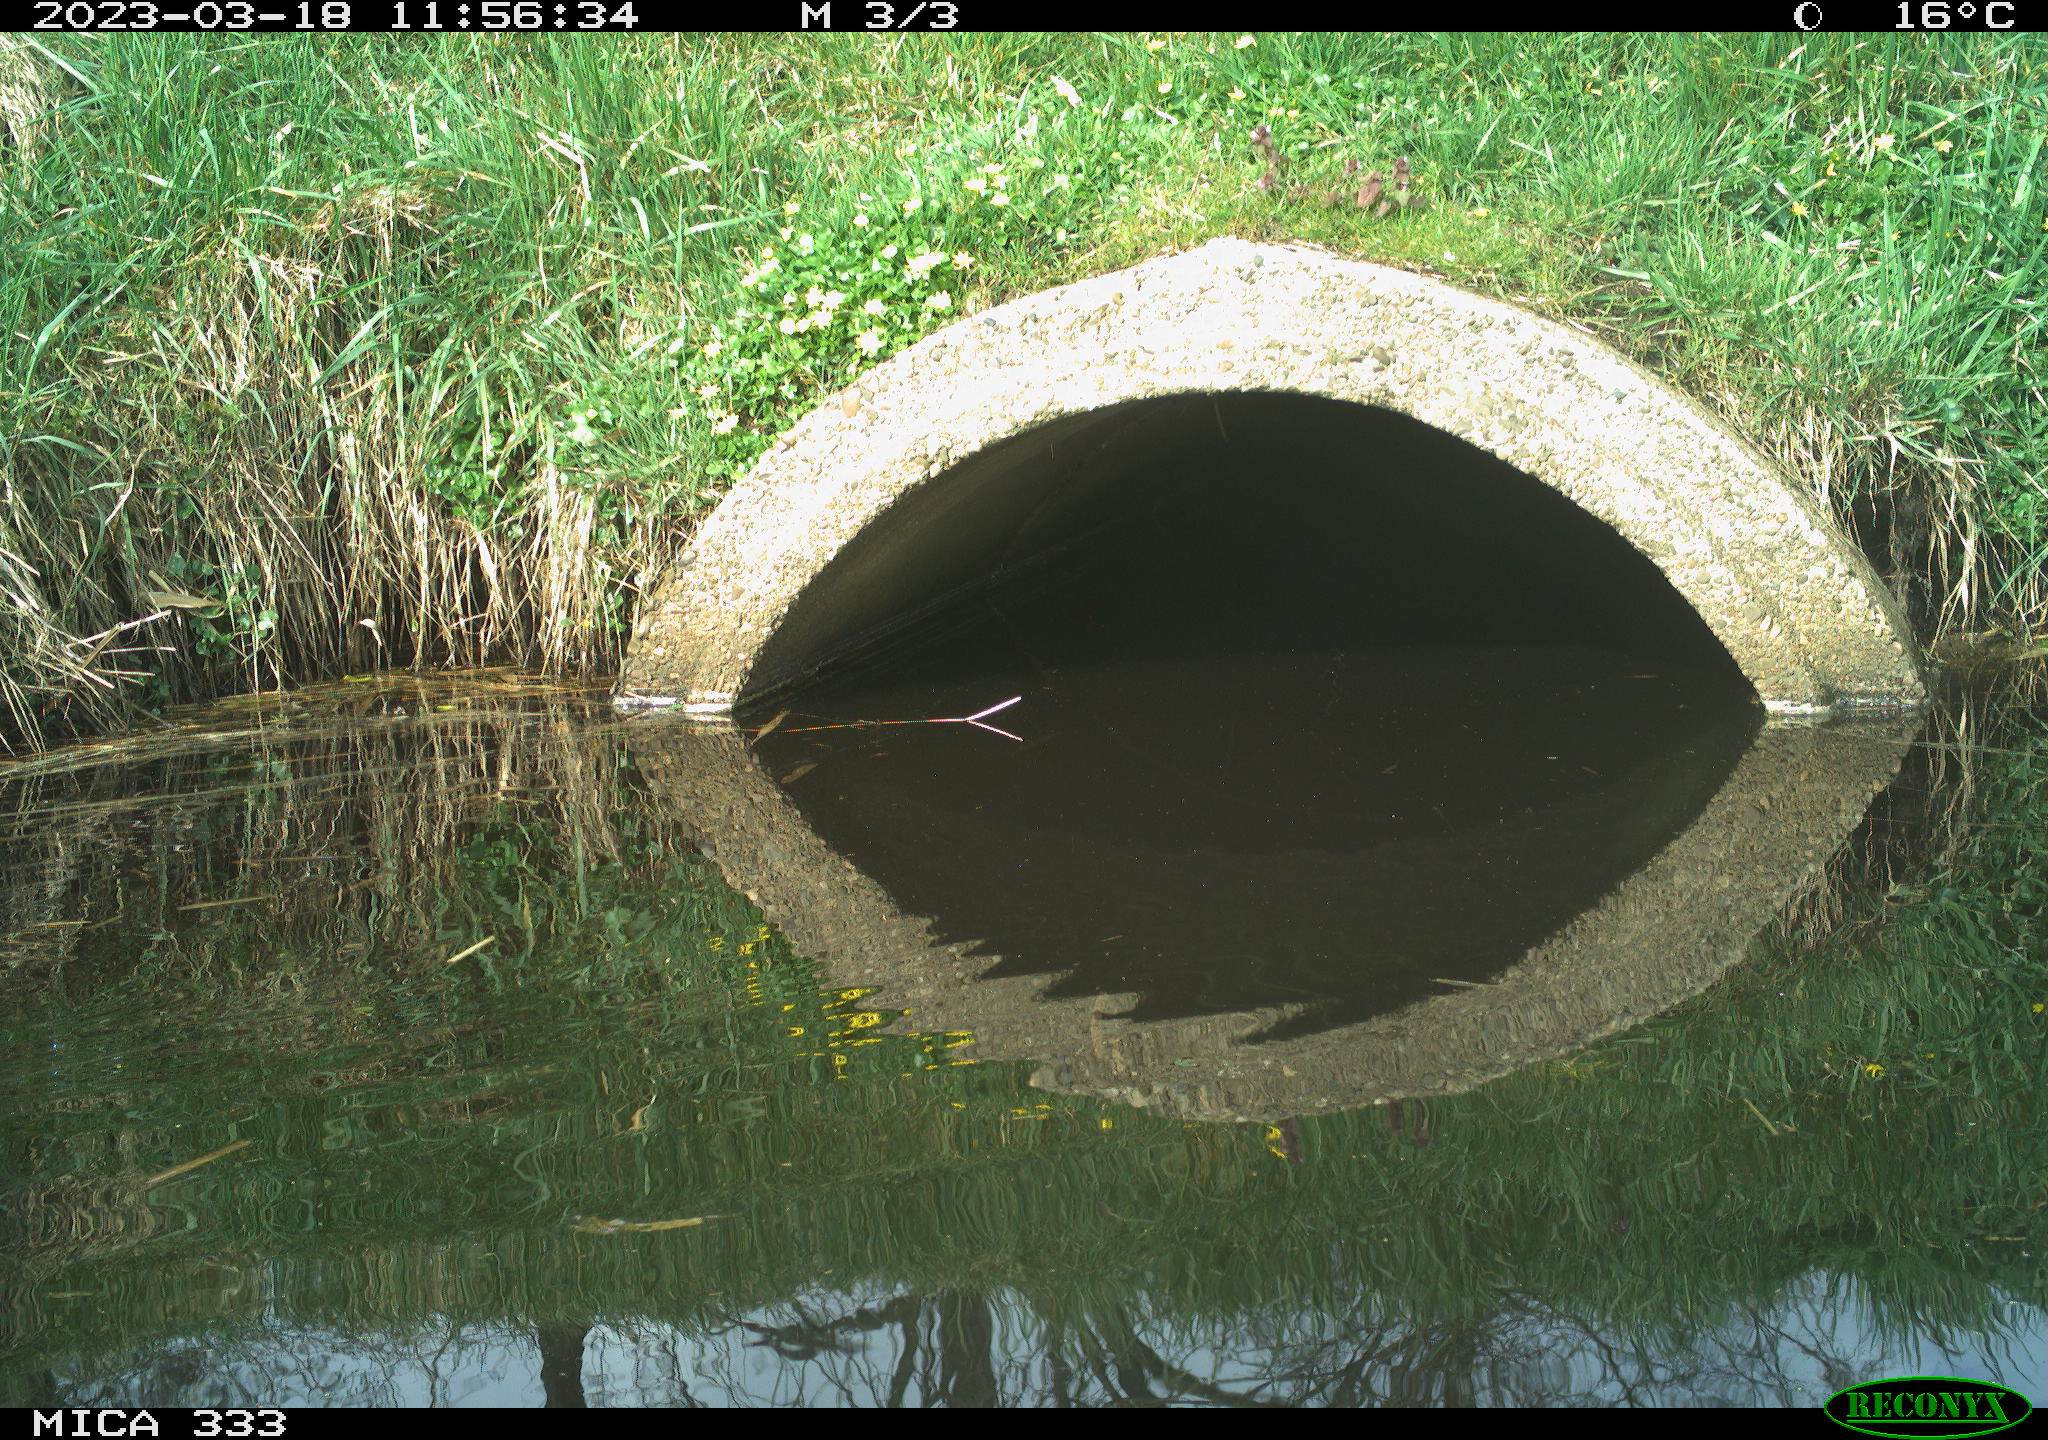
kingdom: Animalia
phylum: Chordata
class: Aves
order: Gruiformes
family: Rallidae
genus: Gallinula
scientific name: Gallinula chloropus
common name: Common moorhen
